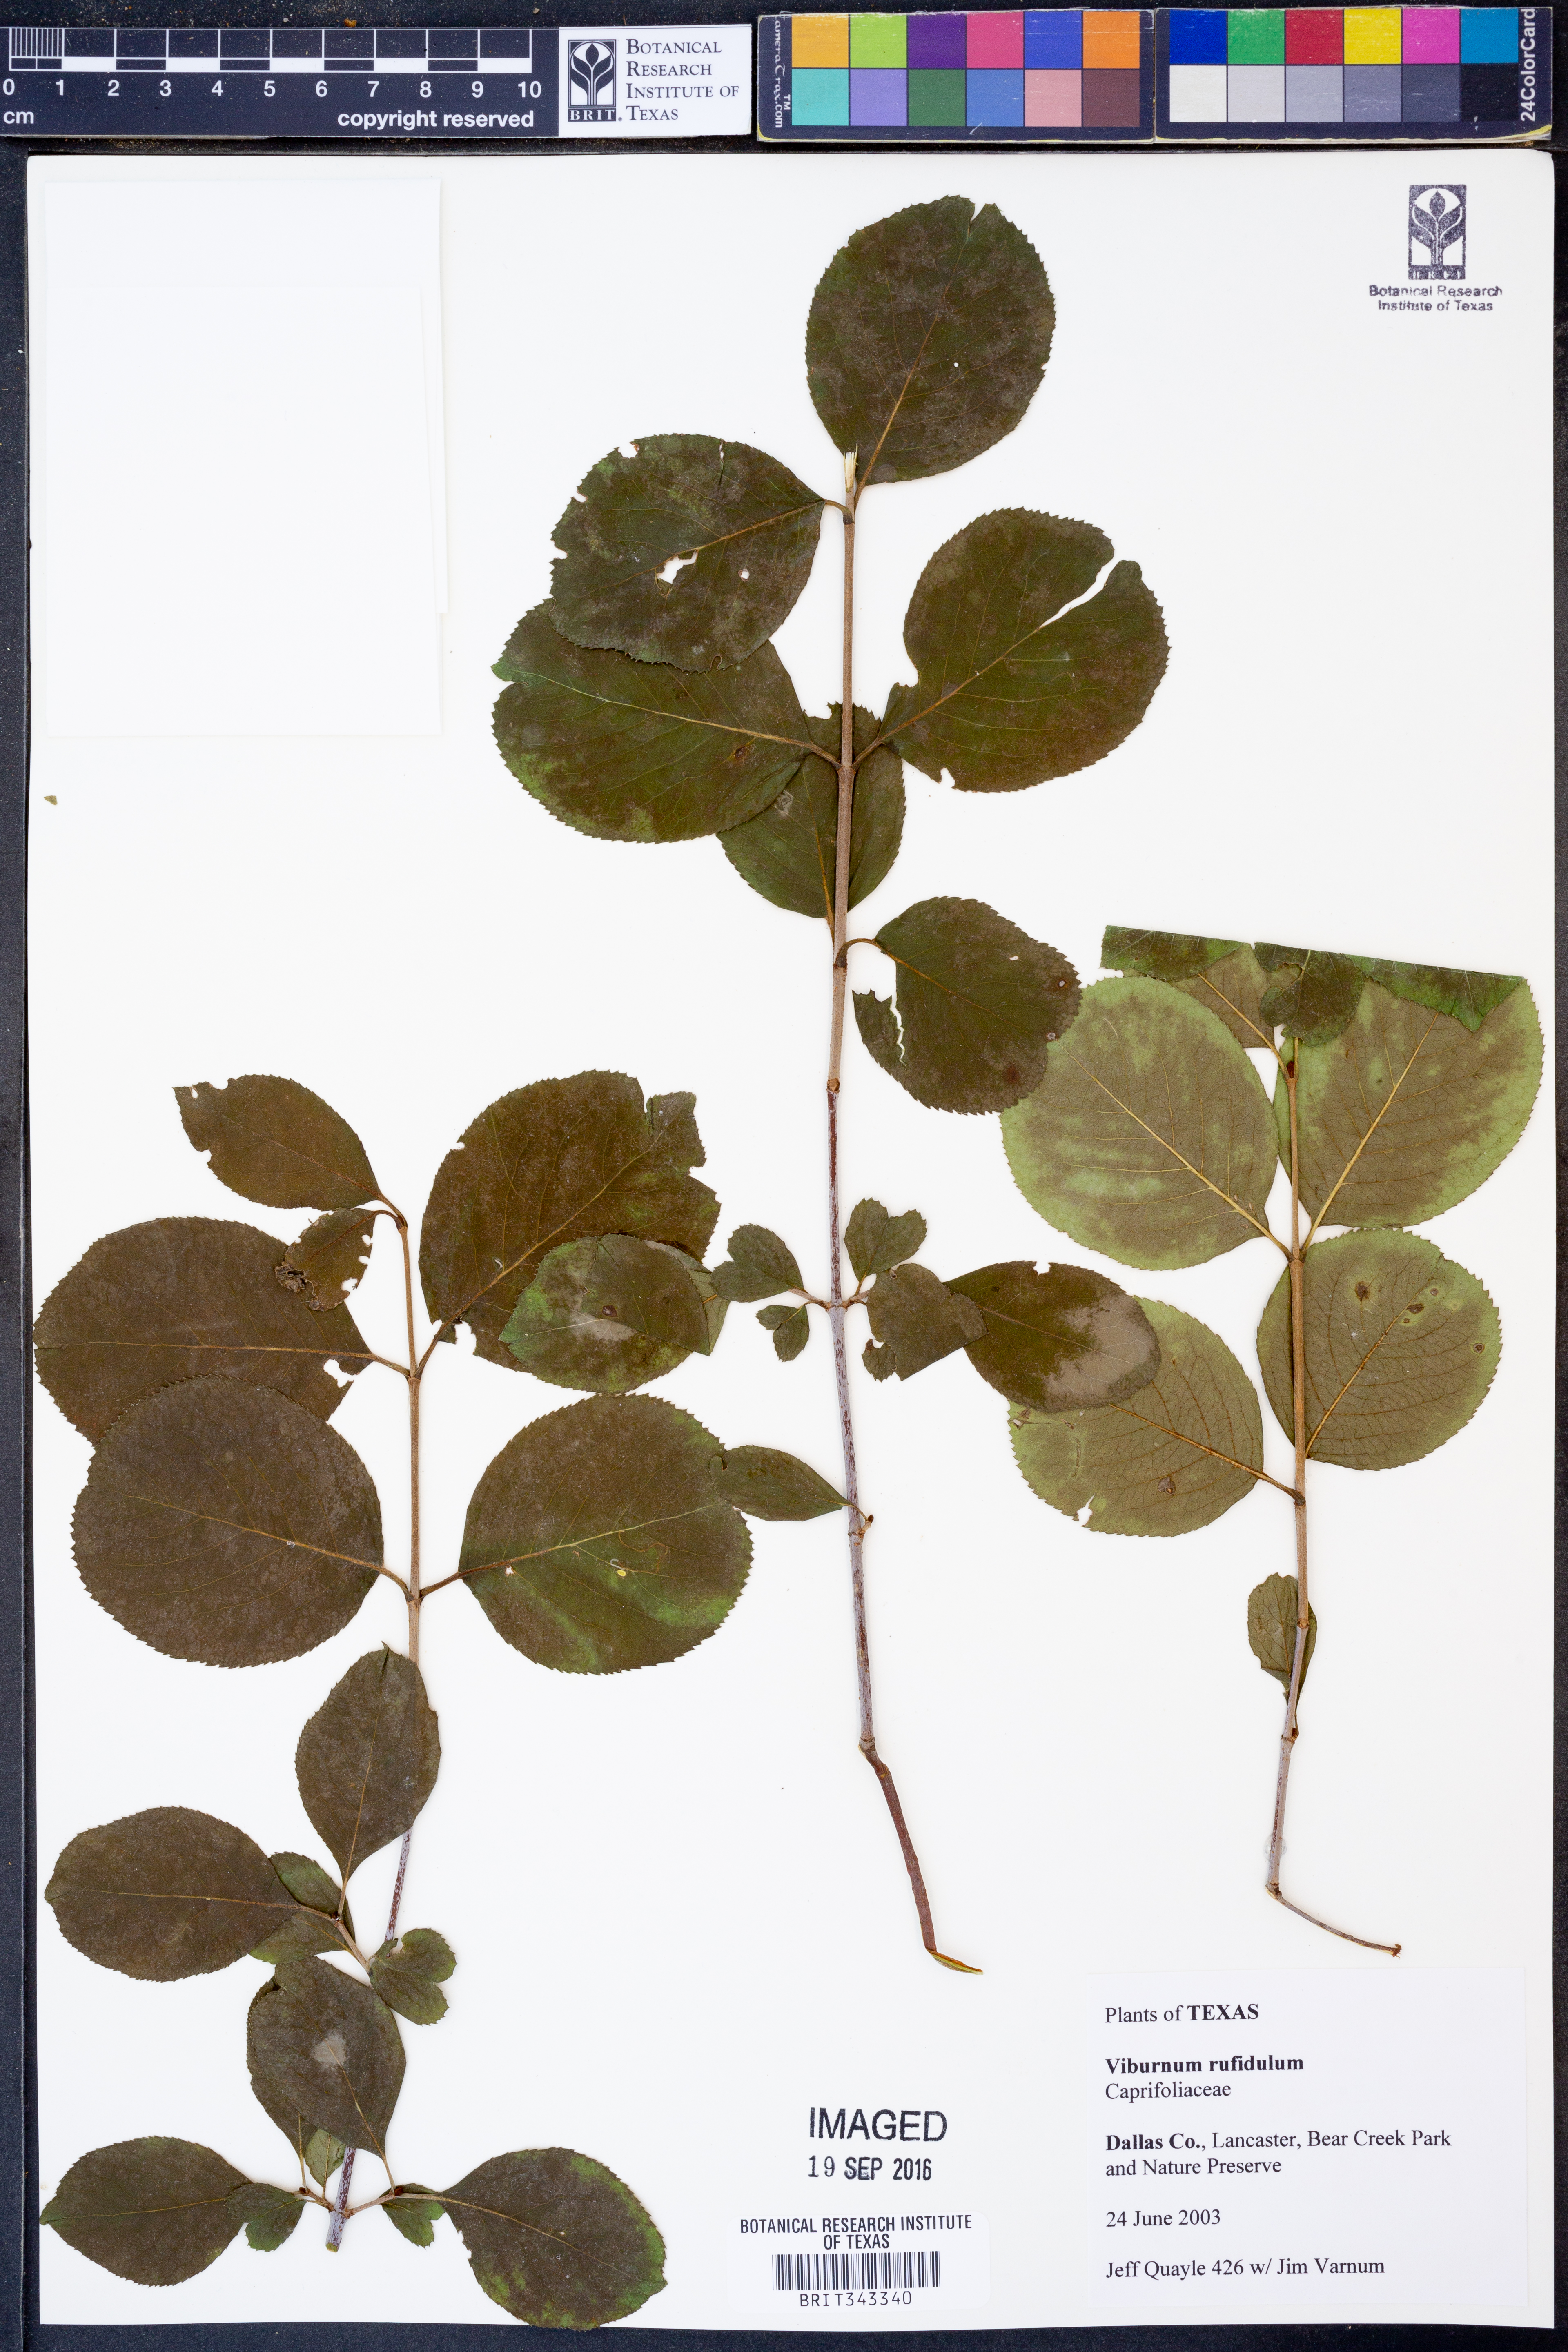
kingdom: Plantae
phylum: Tracheophyta
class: Magnoliopsida
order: Dipsacales
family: Viburnaceae
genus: Viburnum
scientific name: Viburnum rufidulum
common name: Blue haw
